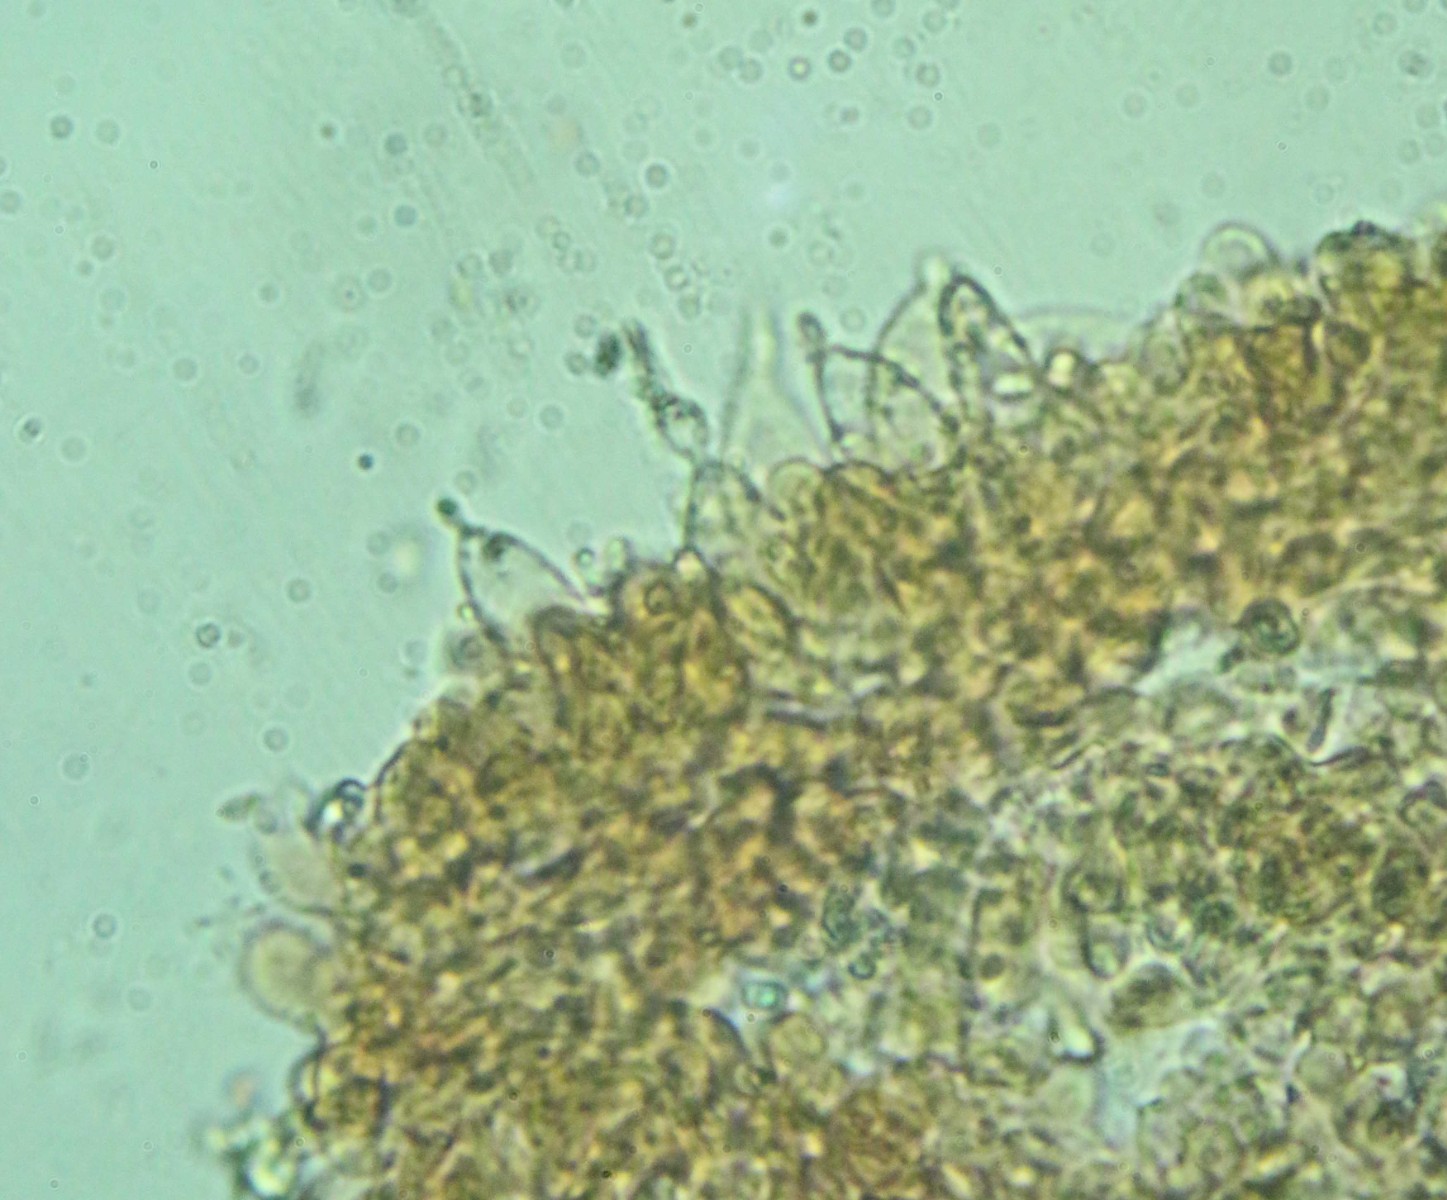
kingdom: Fungi
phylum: Basidiomycota
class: Agaricomycetes
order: Agaricales
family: Agaricaceae
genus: Cystolepiota
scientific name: Cystolepiota hetieri
